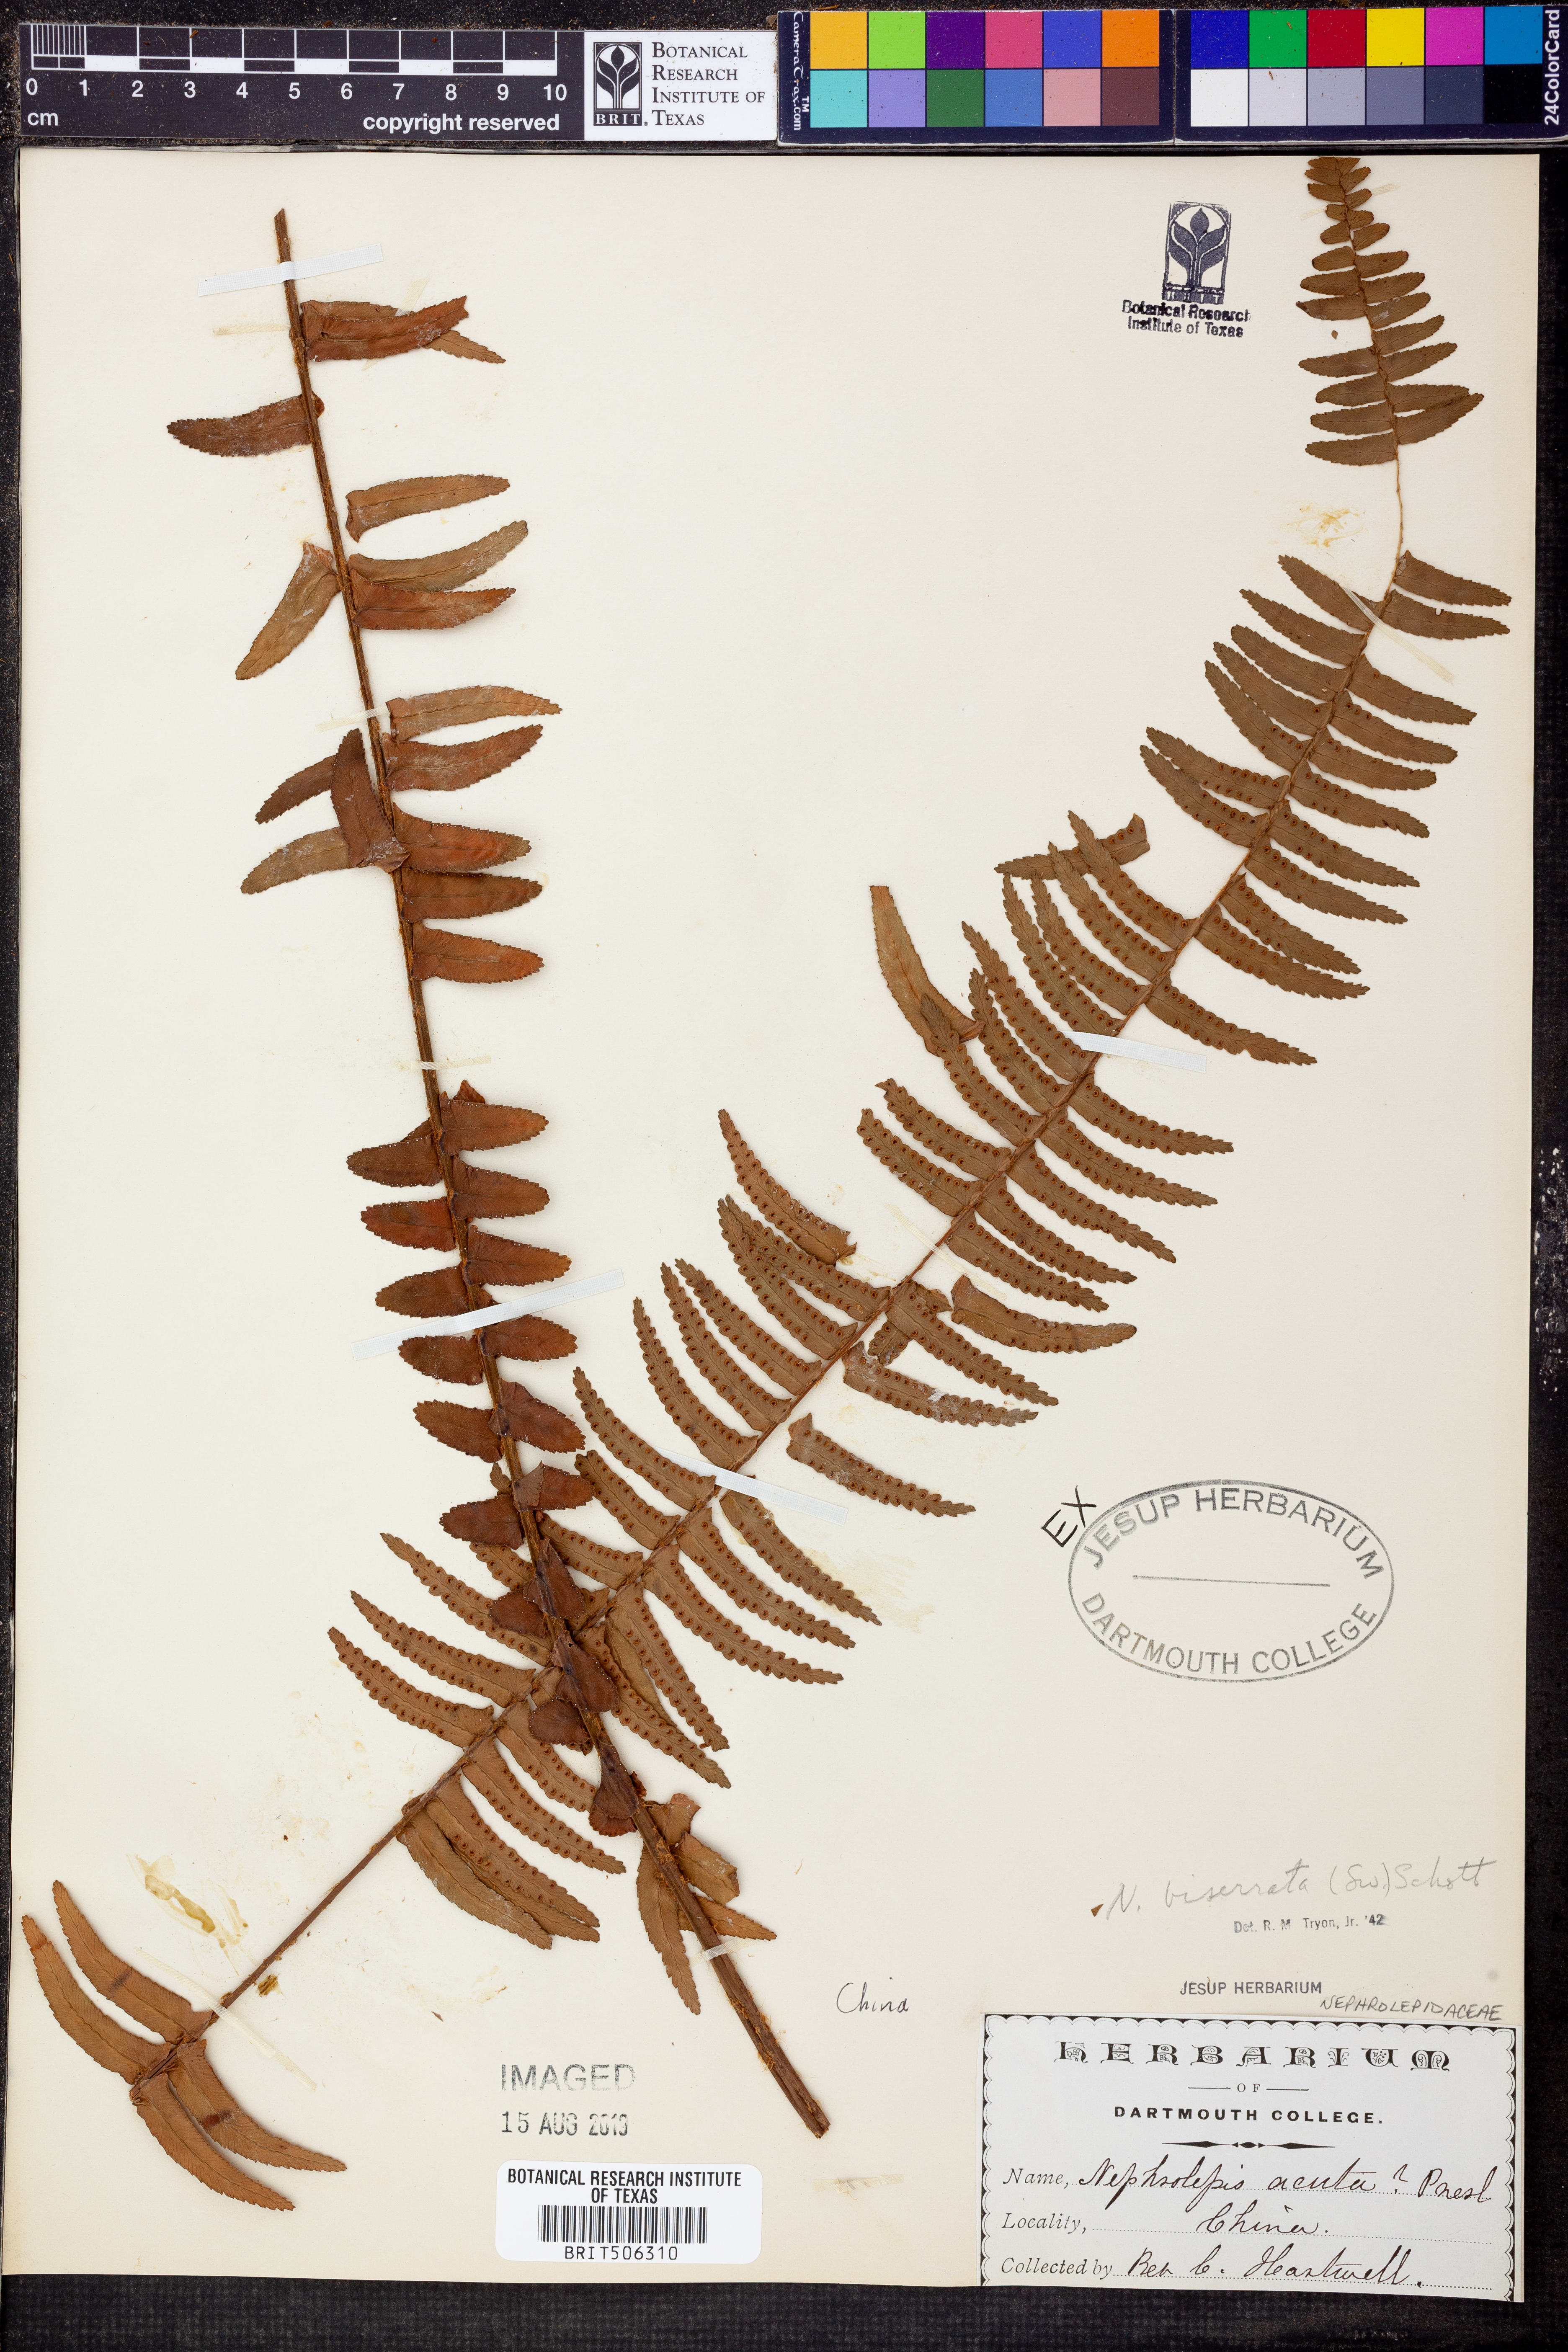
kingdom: Plantae
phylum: Tracheophyta
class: Polypodiopsida
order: Polypodiales
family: Nephrolepidaceae
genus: Nephrolepis
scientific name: Nephrolepis biserrata
